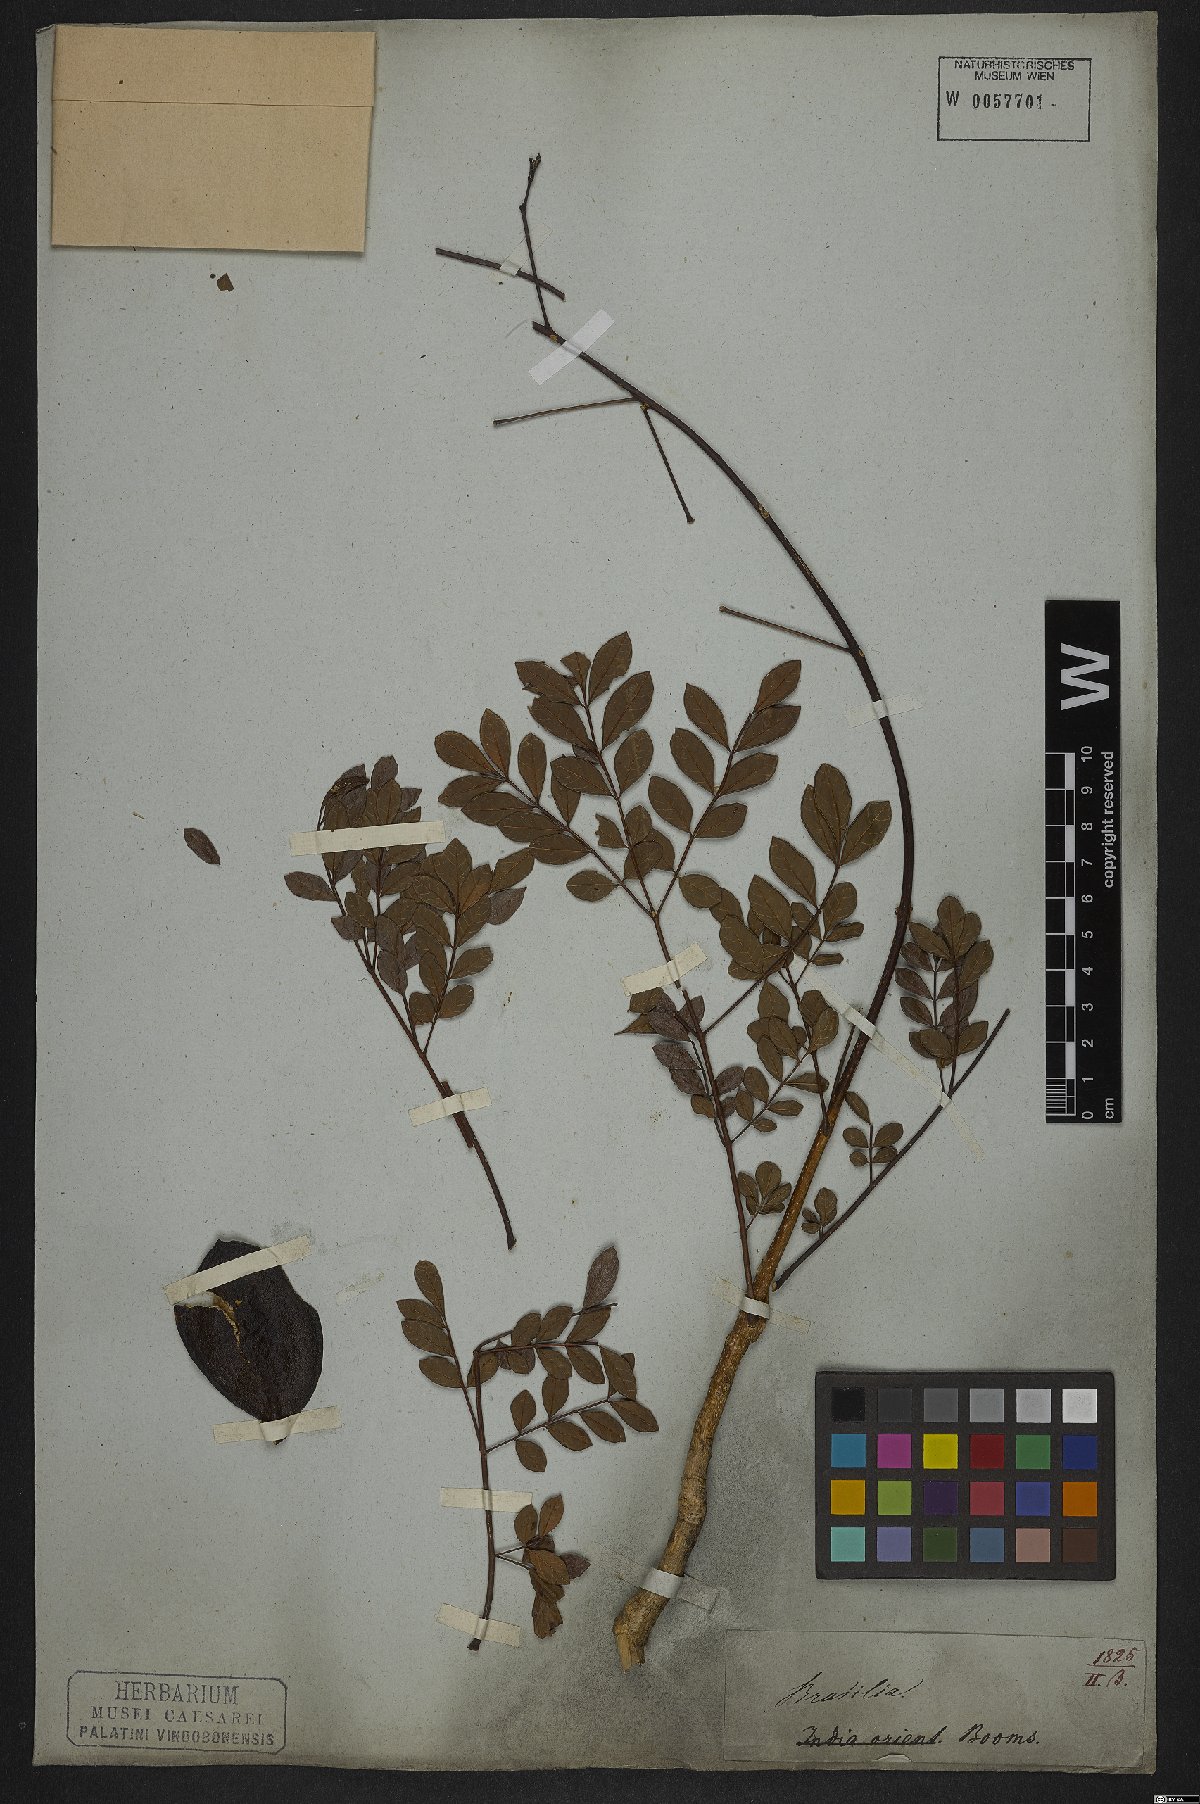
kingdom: Plantae
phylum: Tracheophyta
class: Magnoliopsida
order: Lamiales
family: Bignoniaceae
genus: Jacaranda
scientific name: Jacaranda
